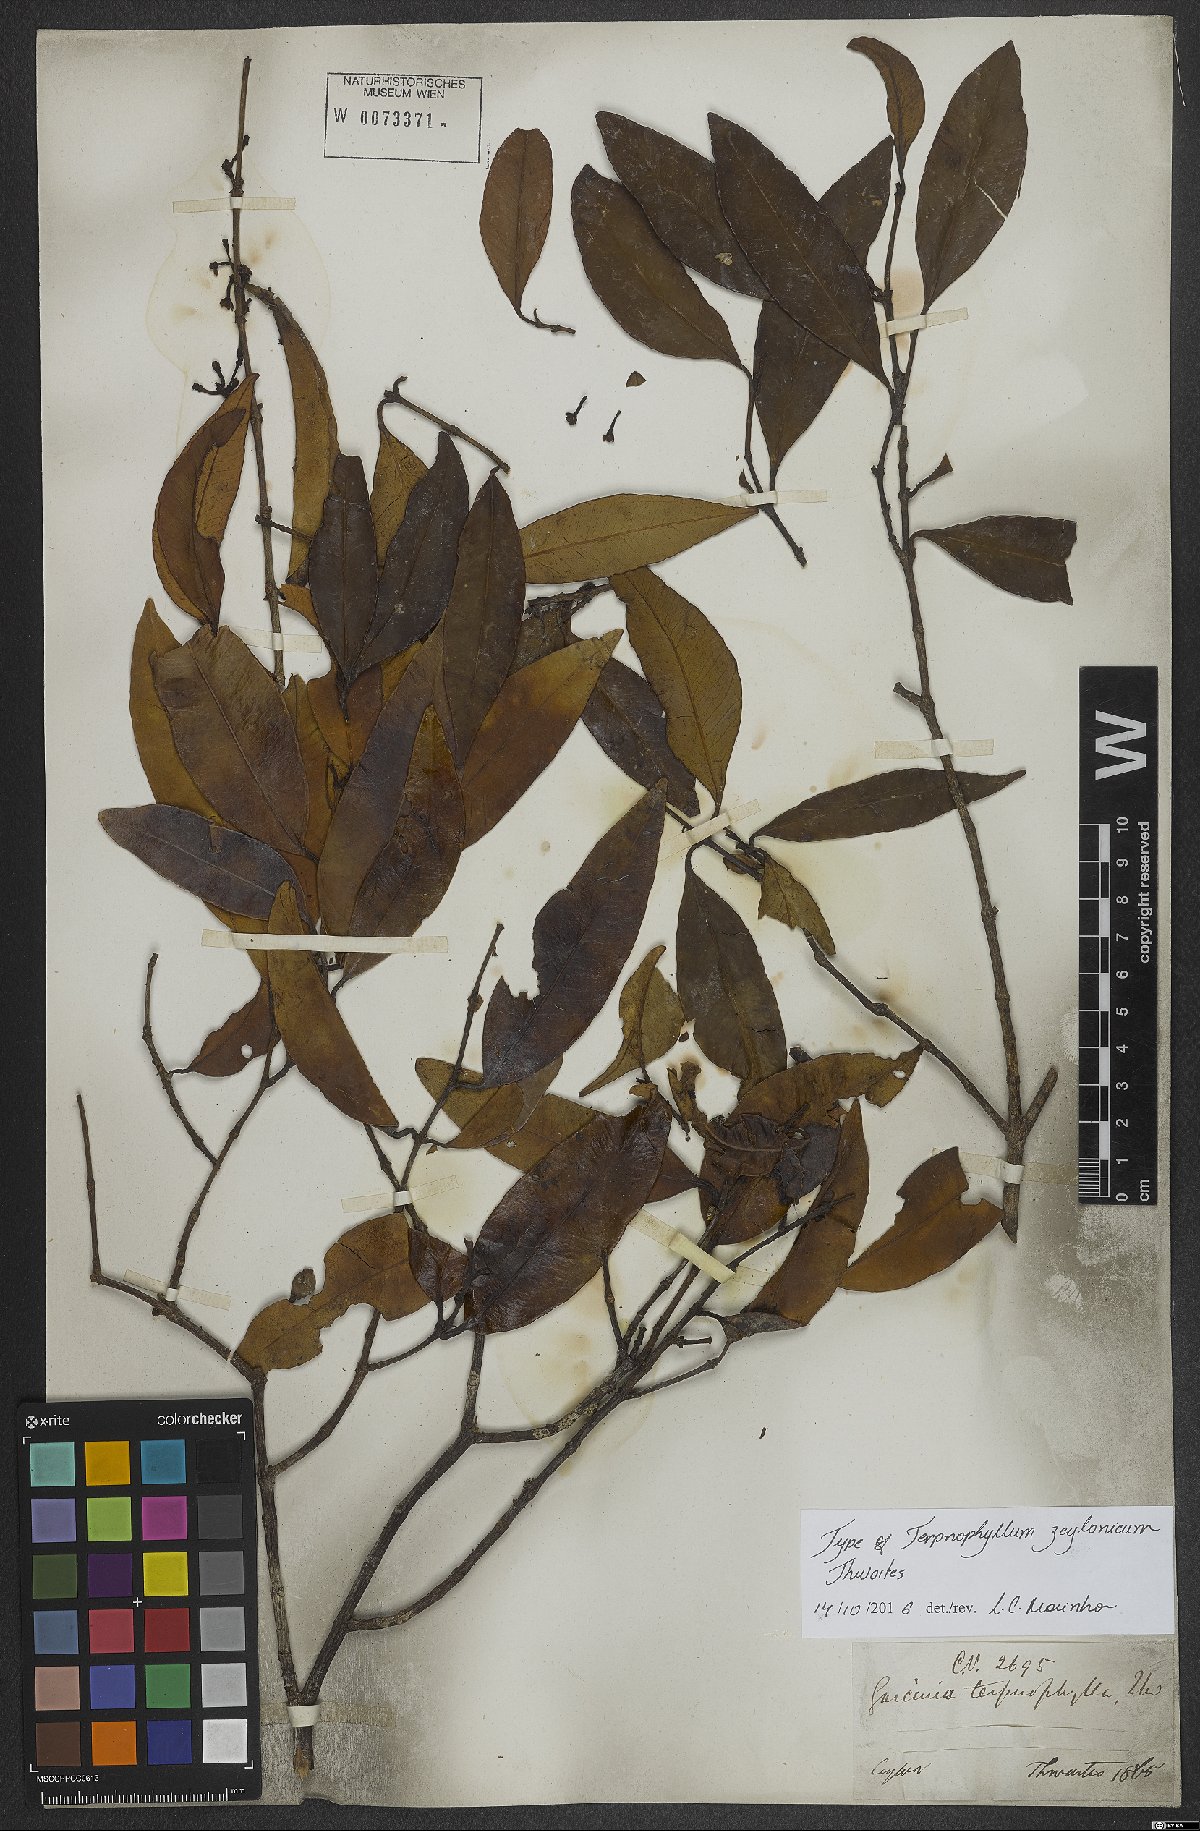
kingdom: Plantae
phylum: Tracheophyta
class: Magnoliopsida
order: Malpighiales
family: Clusiaceae
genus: Garcinia
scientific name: Garcinia terpnophylla
